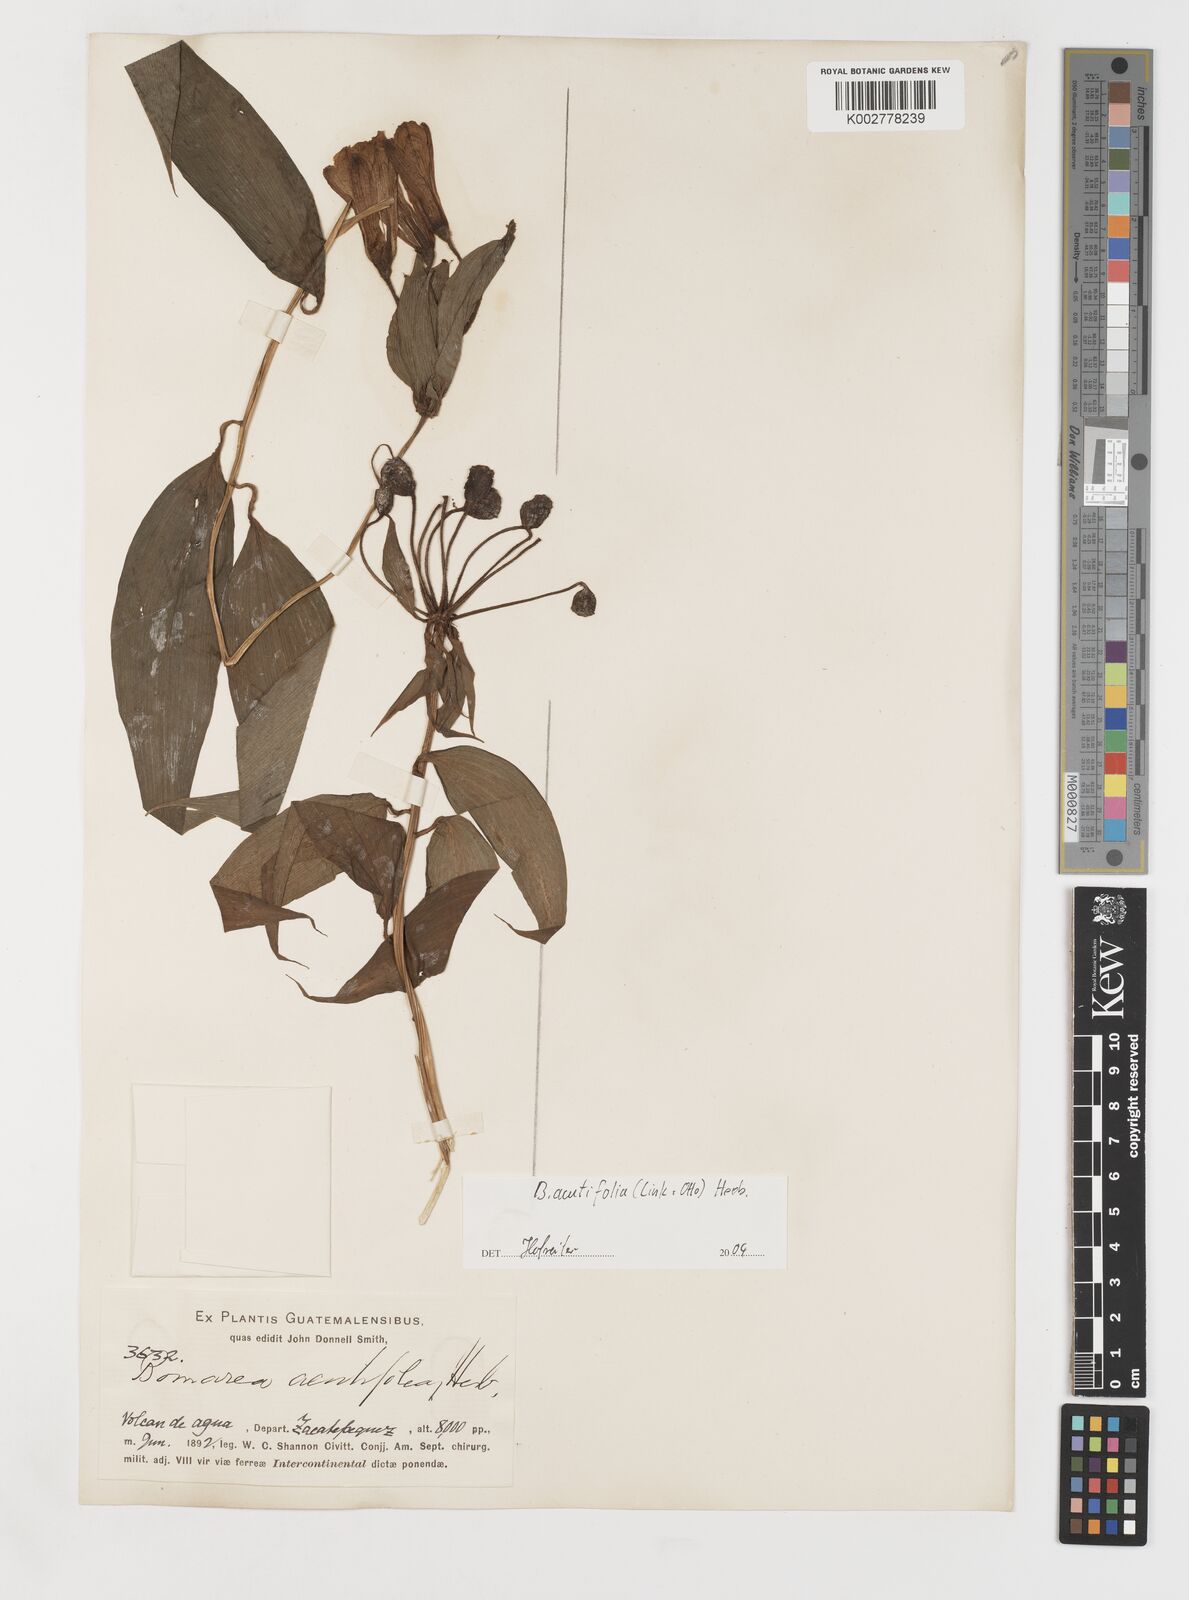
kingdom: Plantae
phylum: Tracheophyta
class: Liliopsida
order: Liliales
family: Alstroemeriaceae
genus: Bomarea
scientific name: Bomarea acutifolia
